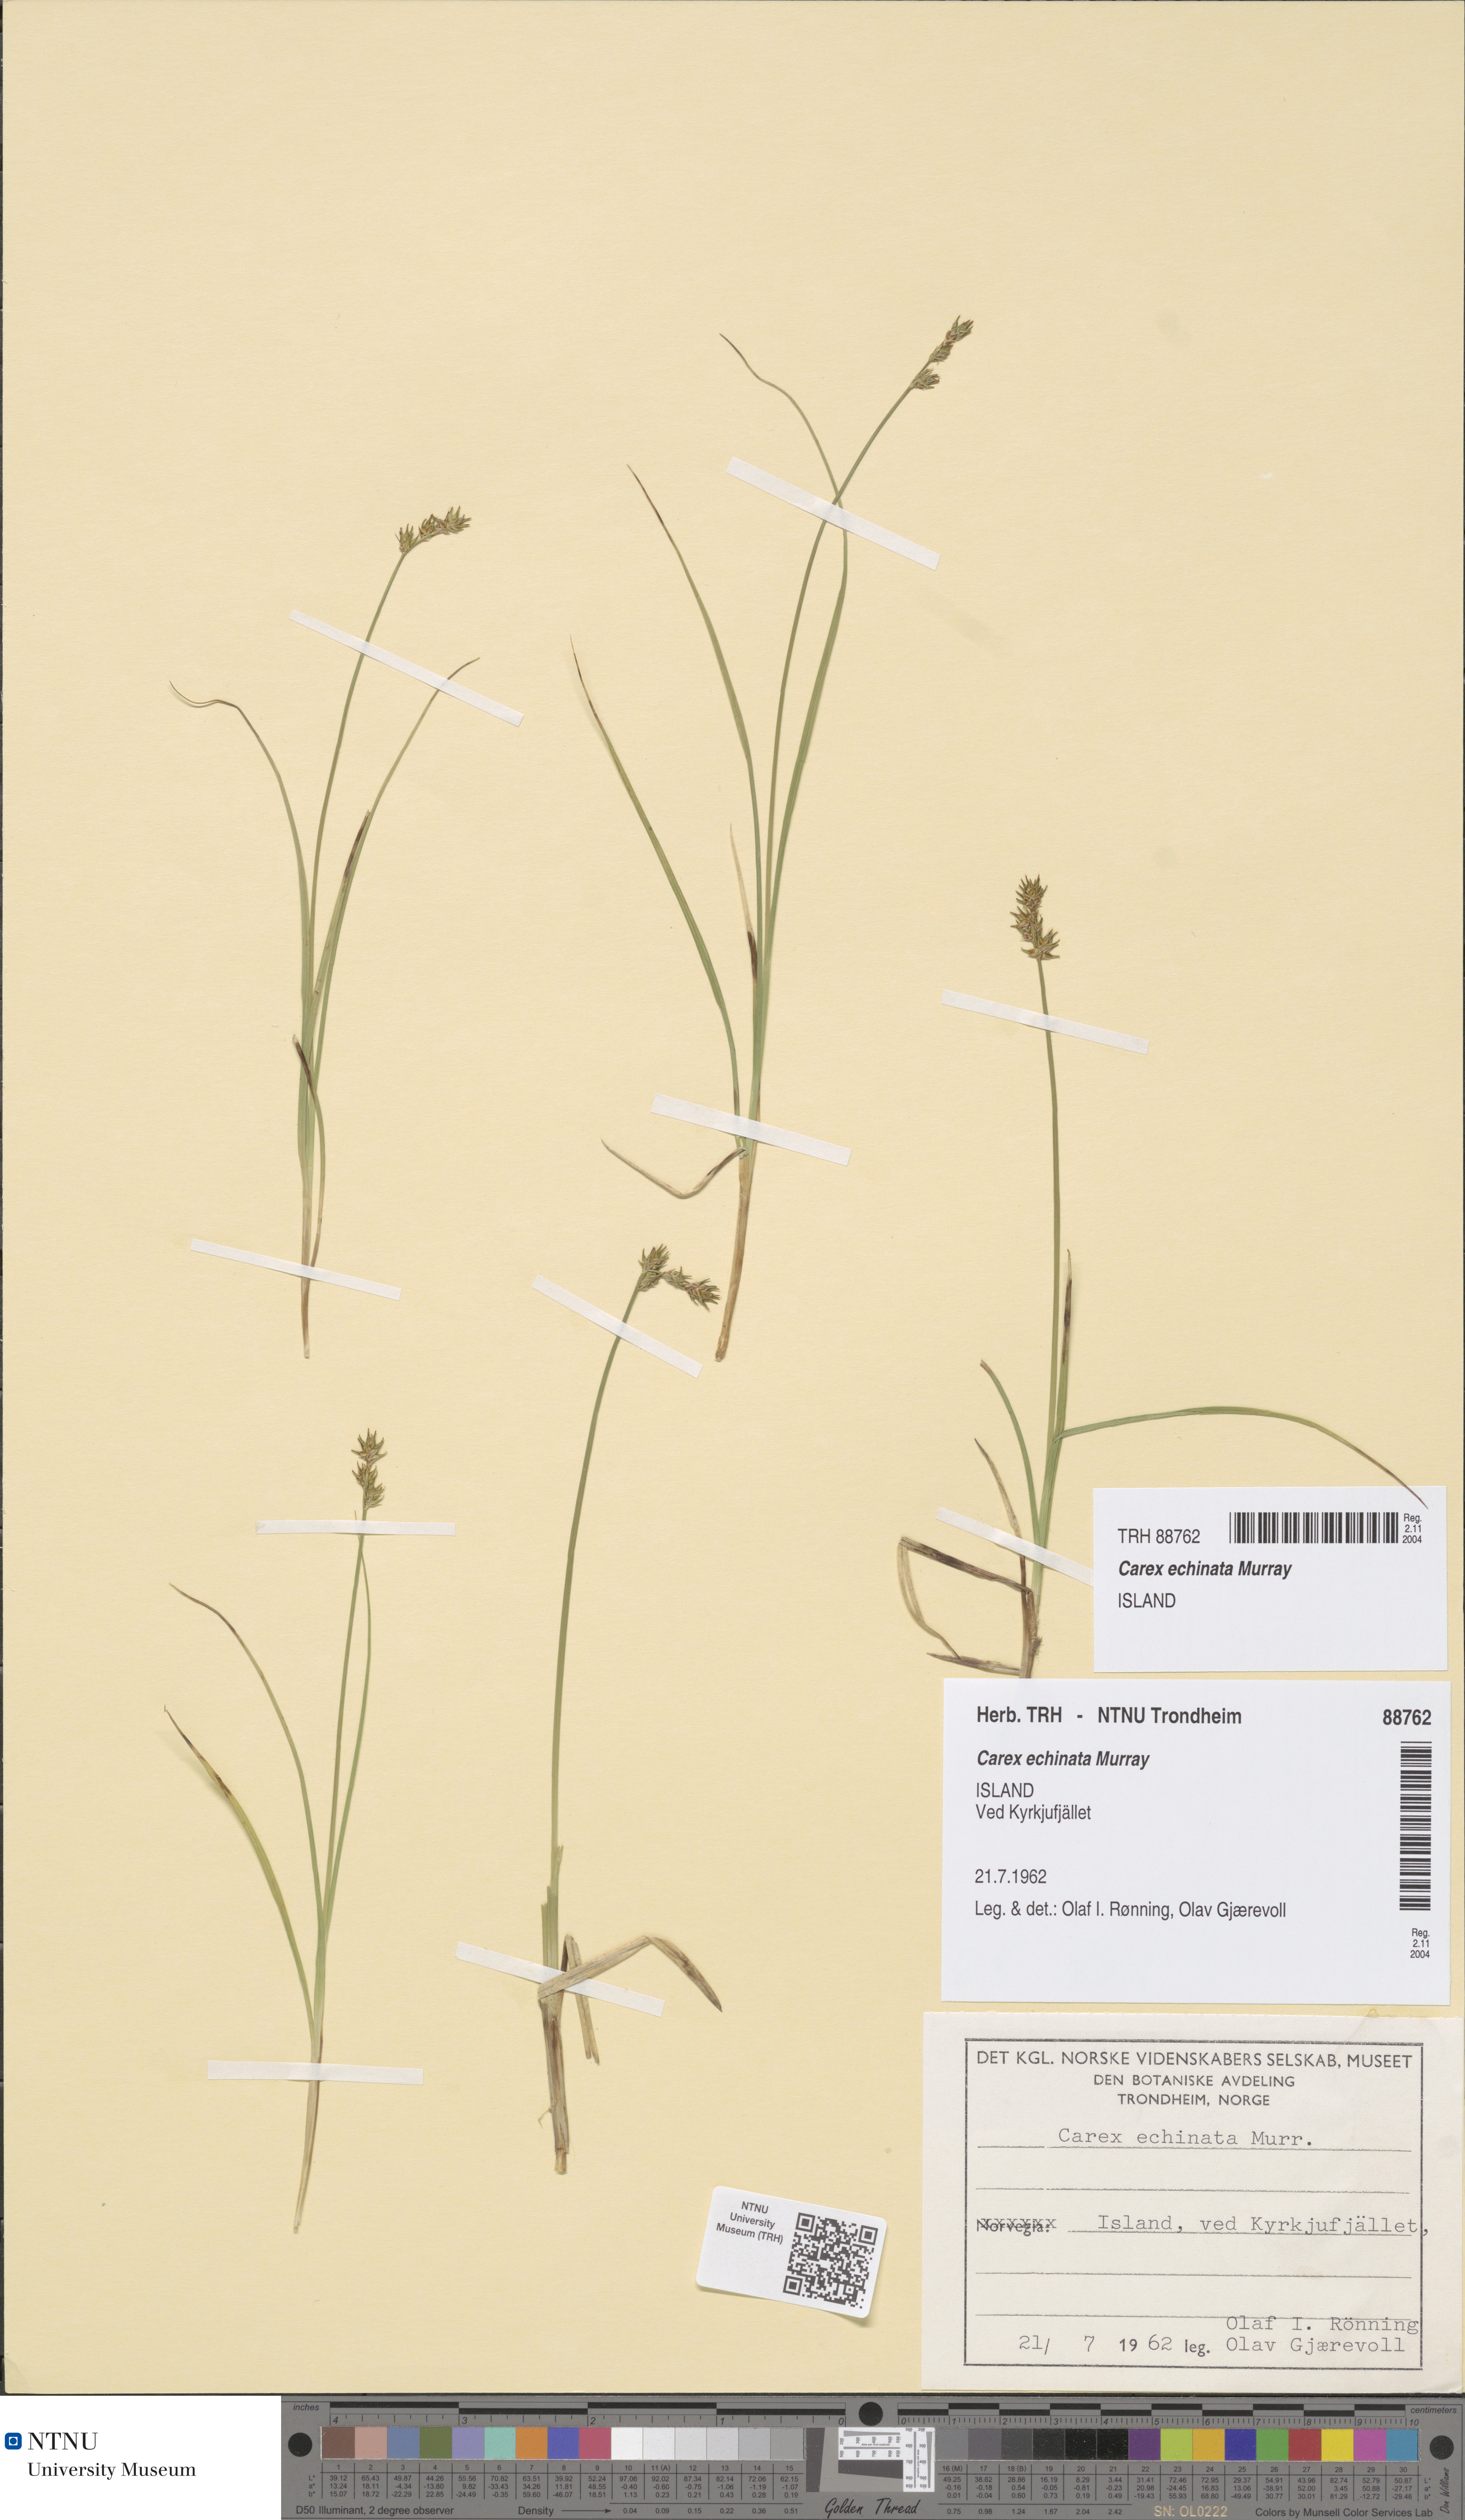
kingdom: Plantae
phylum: Tracheophyta
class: Liliopsida
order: Poales
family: Cyperaceae
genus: Carex
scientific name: Carex echinata
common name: Star sedge
